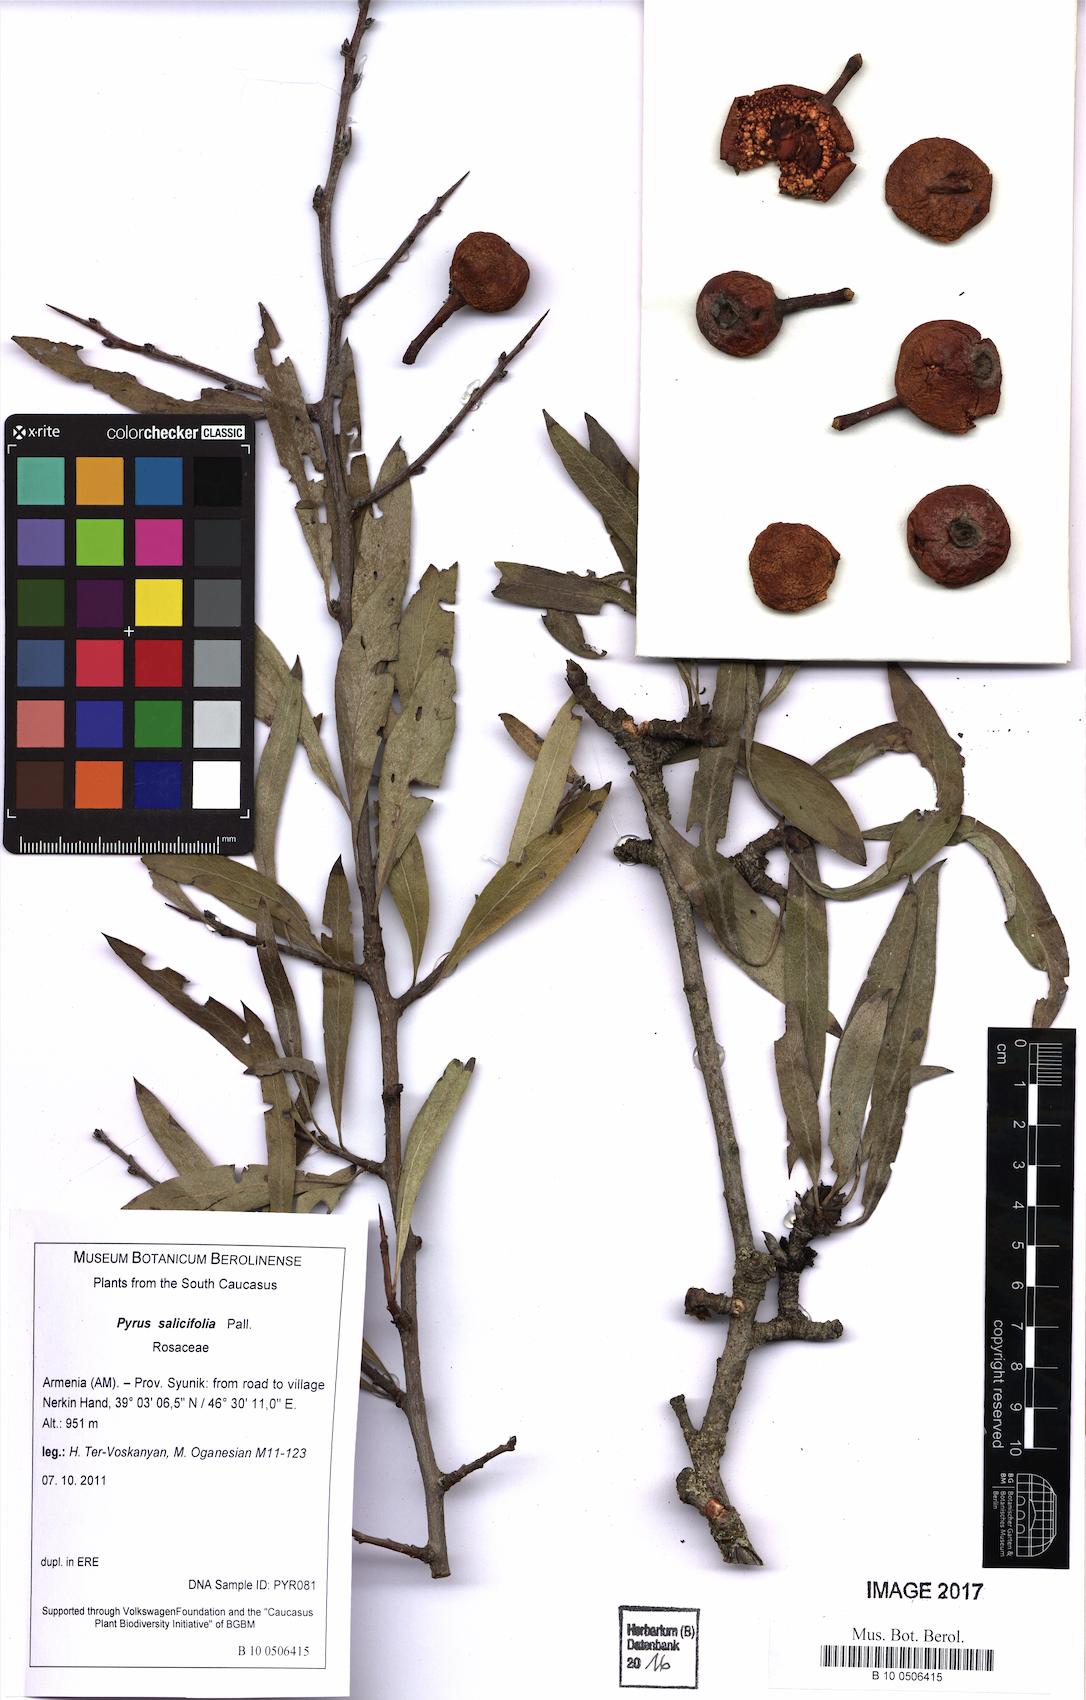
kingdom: Plantae
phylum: Tracheophyta
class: Magnoliopsida
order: Rosales
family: Rosaceae
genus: Pyrus
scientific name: Pyrus salicifolia
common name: Willow-leaved pear
